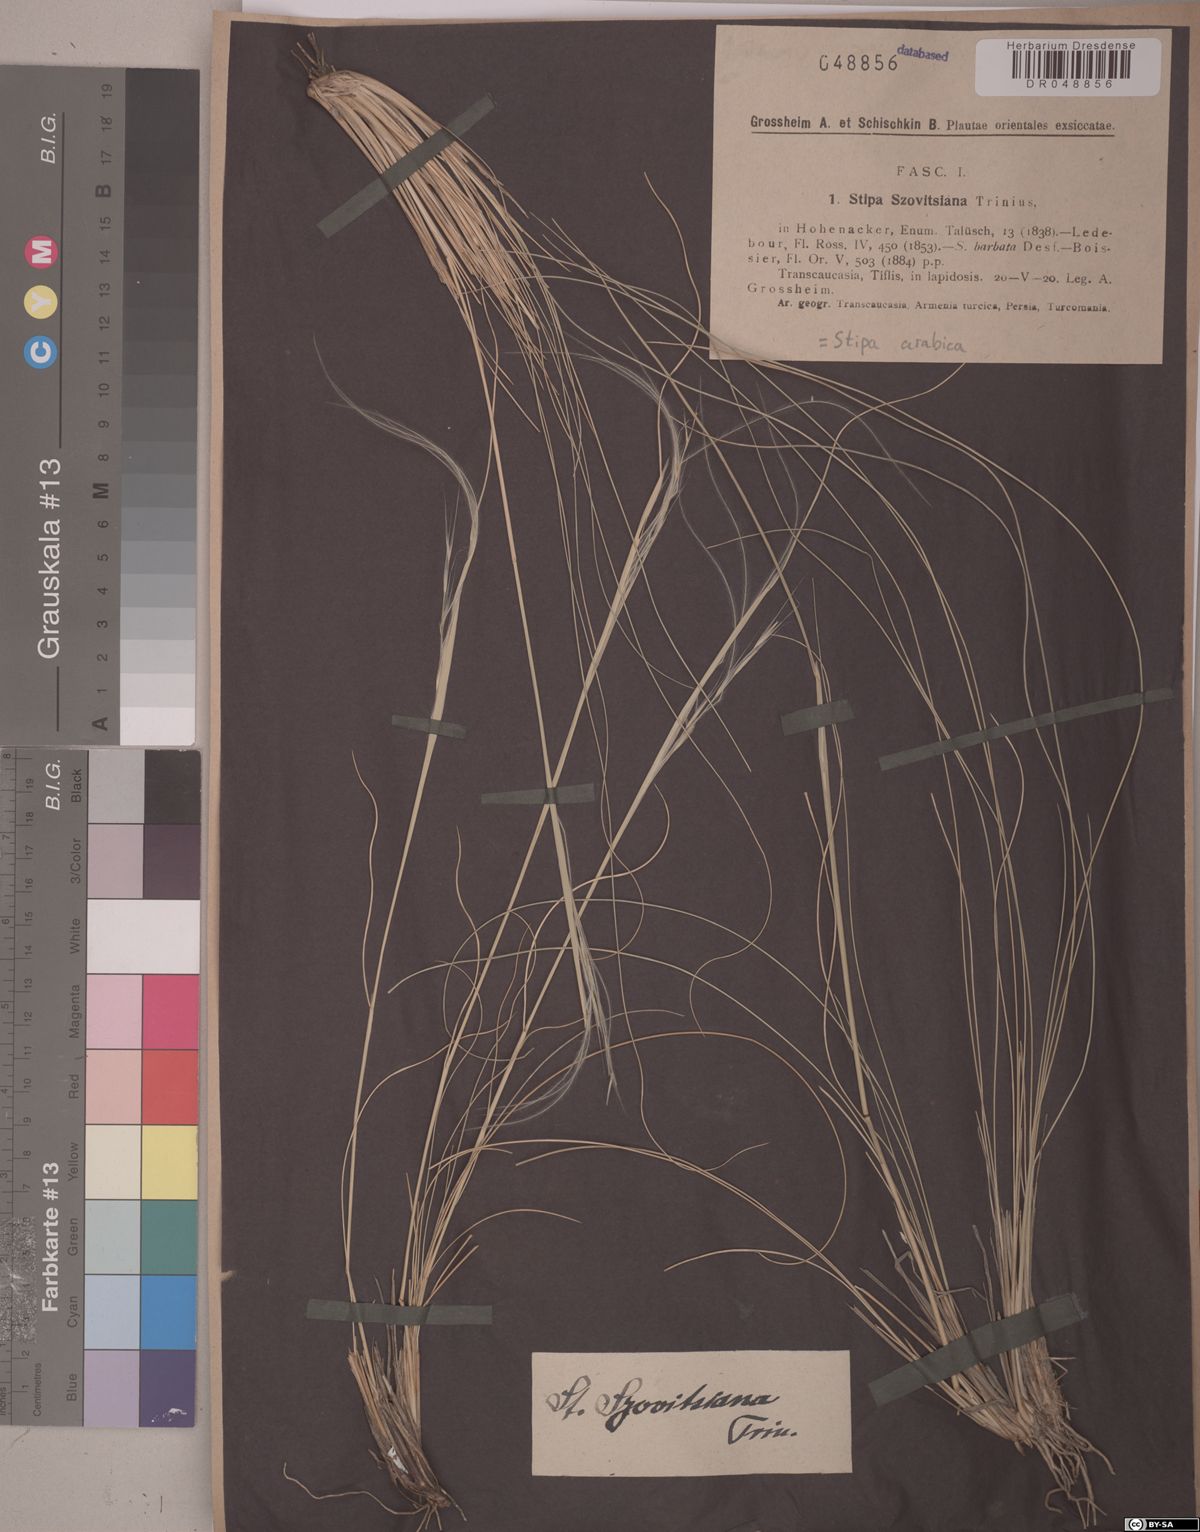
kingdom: Plantae
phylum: Tracheophyta
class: Liliopsida
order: Poales
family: Poaceae
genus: Stipa
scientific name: Stipa arabica
